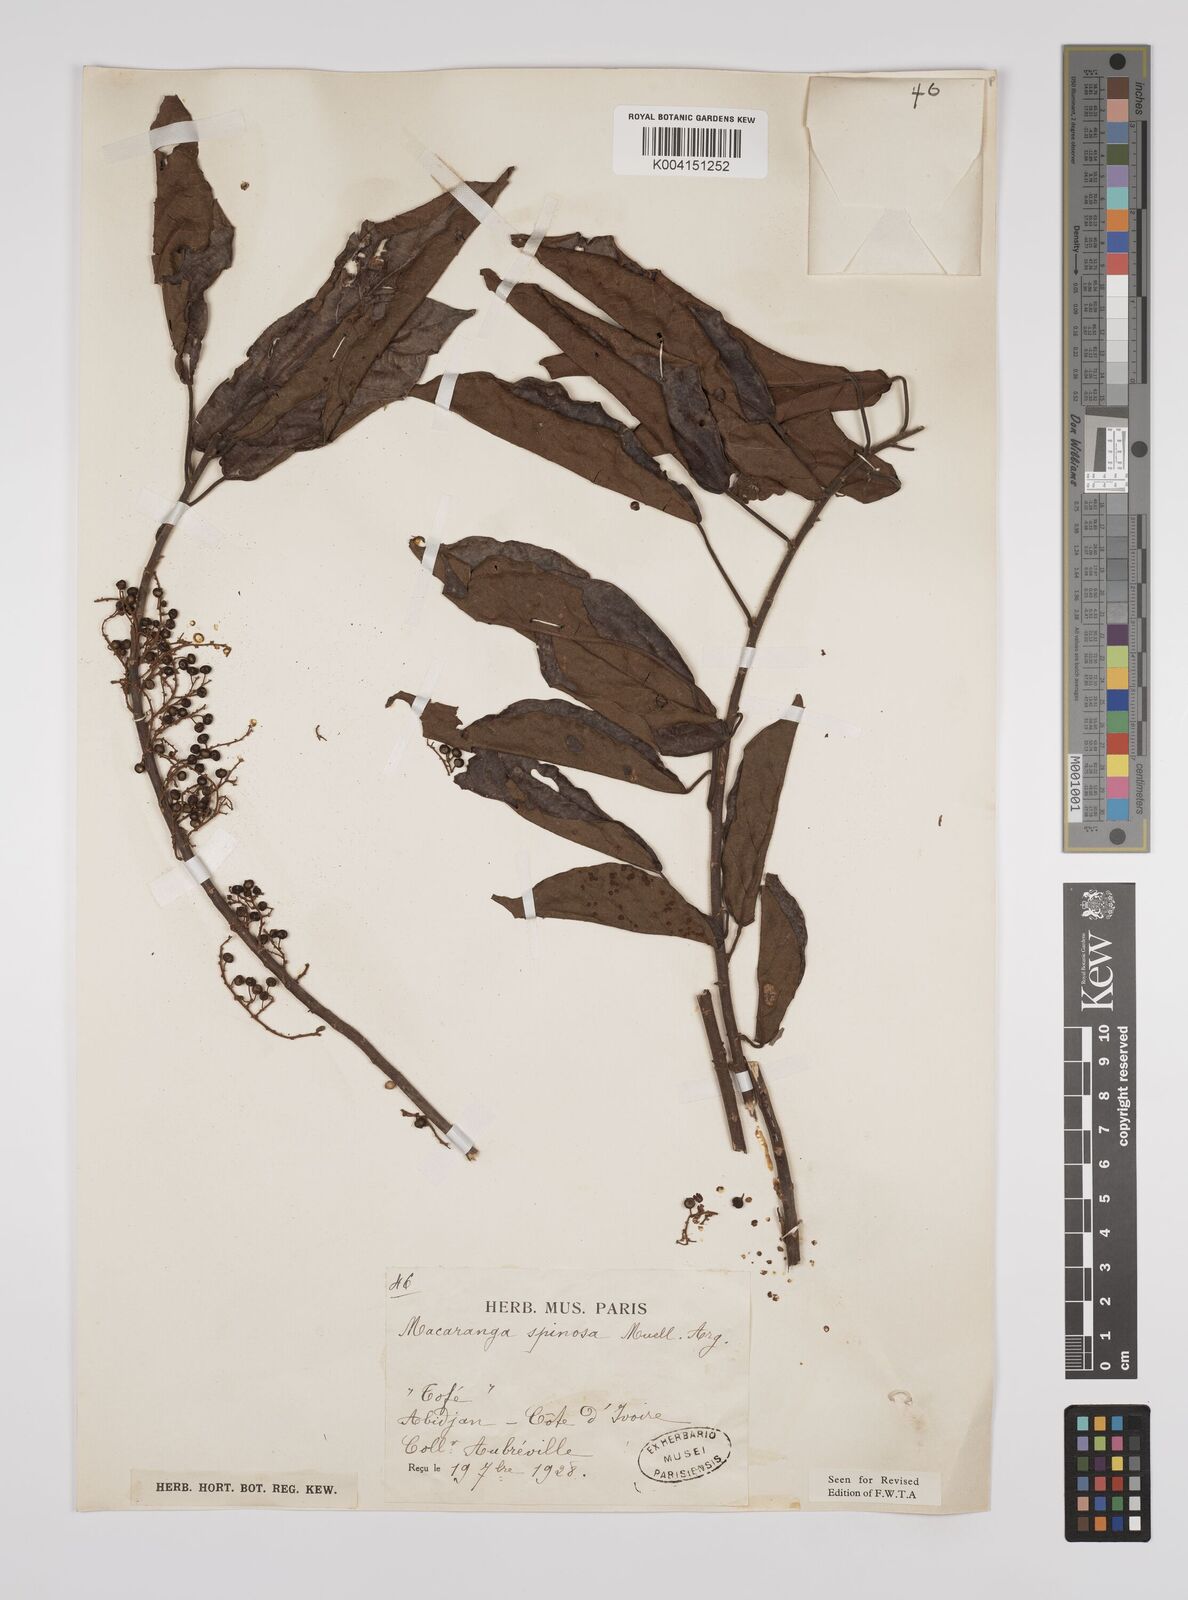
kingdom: Plantae
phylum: Tracheophyta
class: Magnoliopsida
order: Malpighiales
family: Euphorbiaceae
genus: Macaranga
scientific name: Macaranga spinosa
